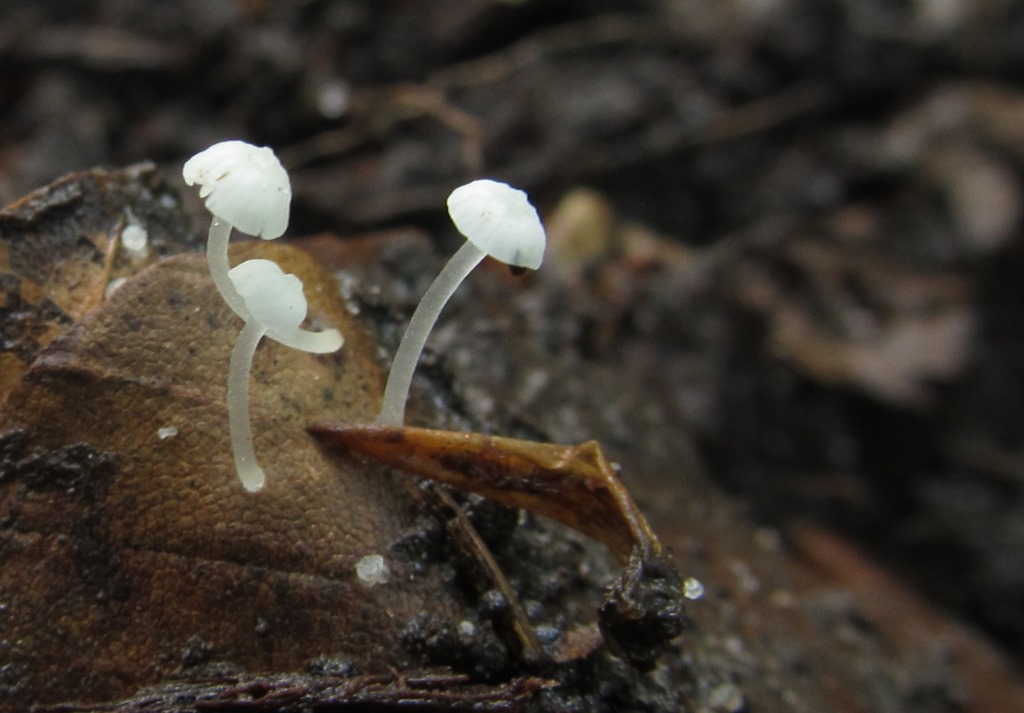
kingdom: Fungi
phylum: Basidiomycota
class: Agaricomycetes
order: Agaricales
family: Mycenaceae
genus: Hemimycena
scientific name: Hemimycena
